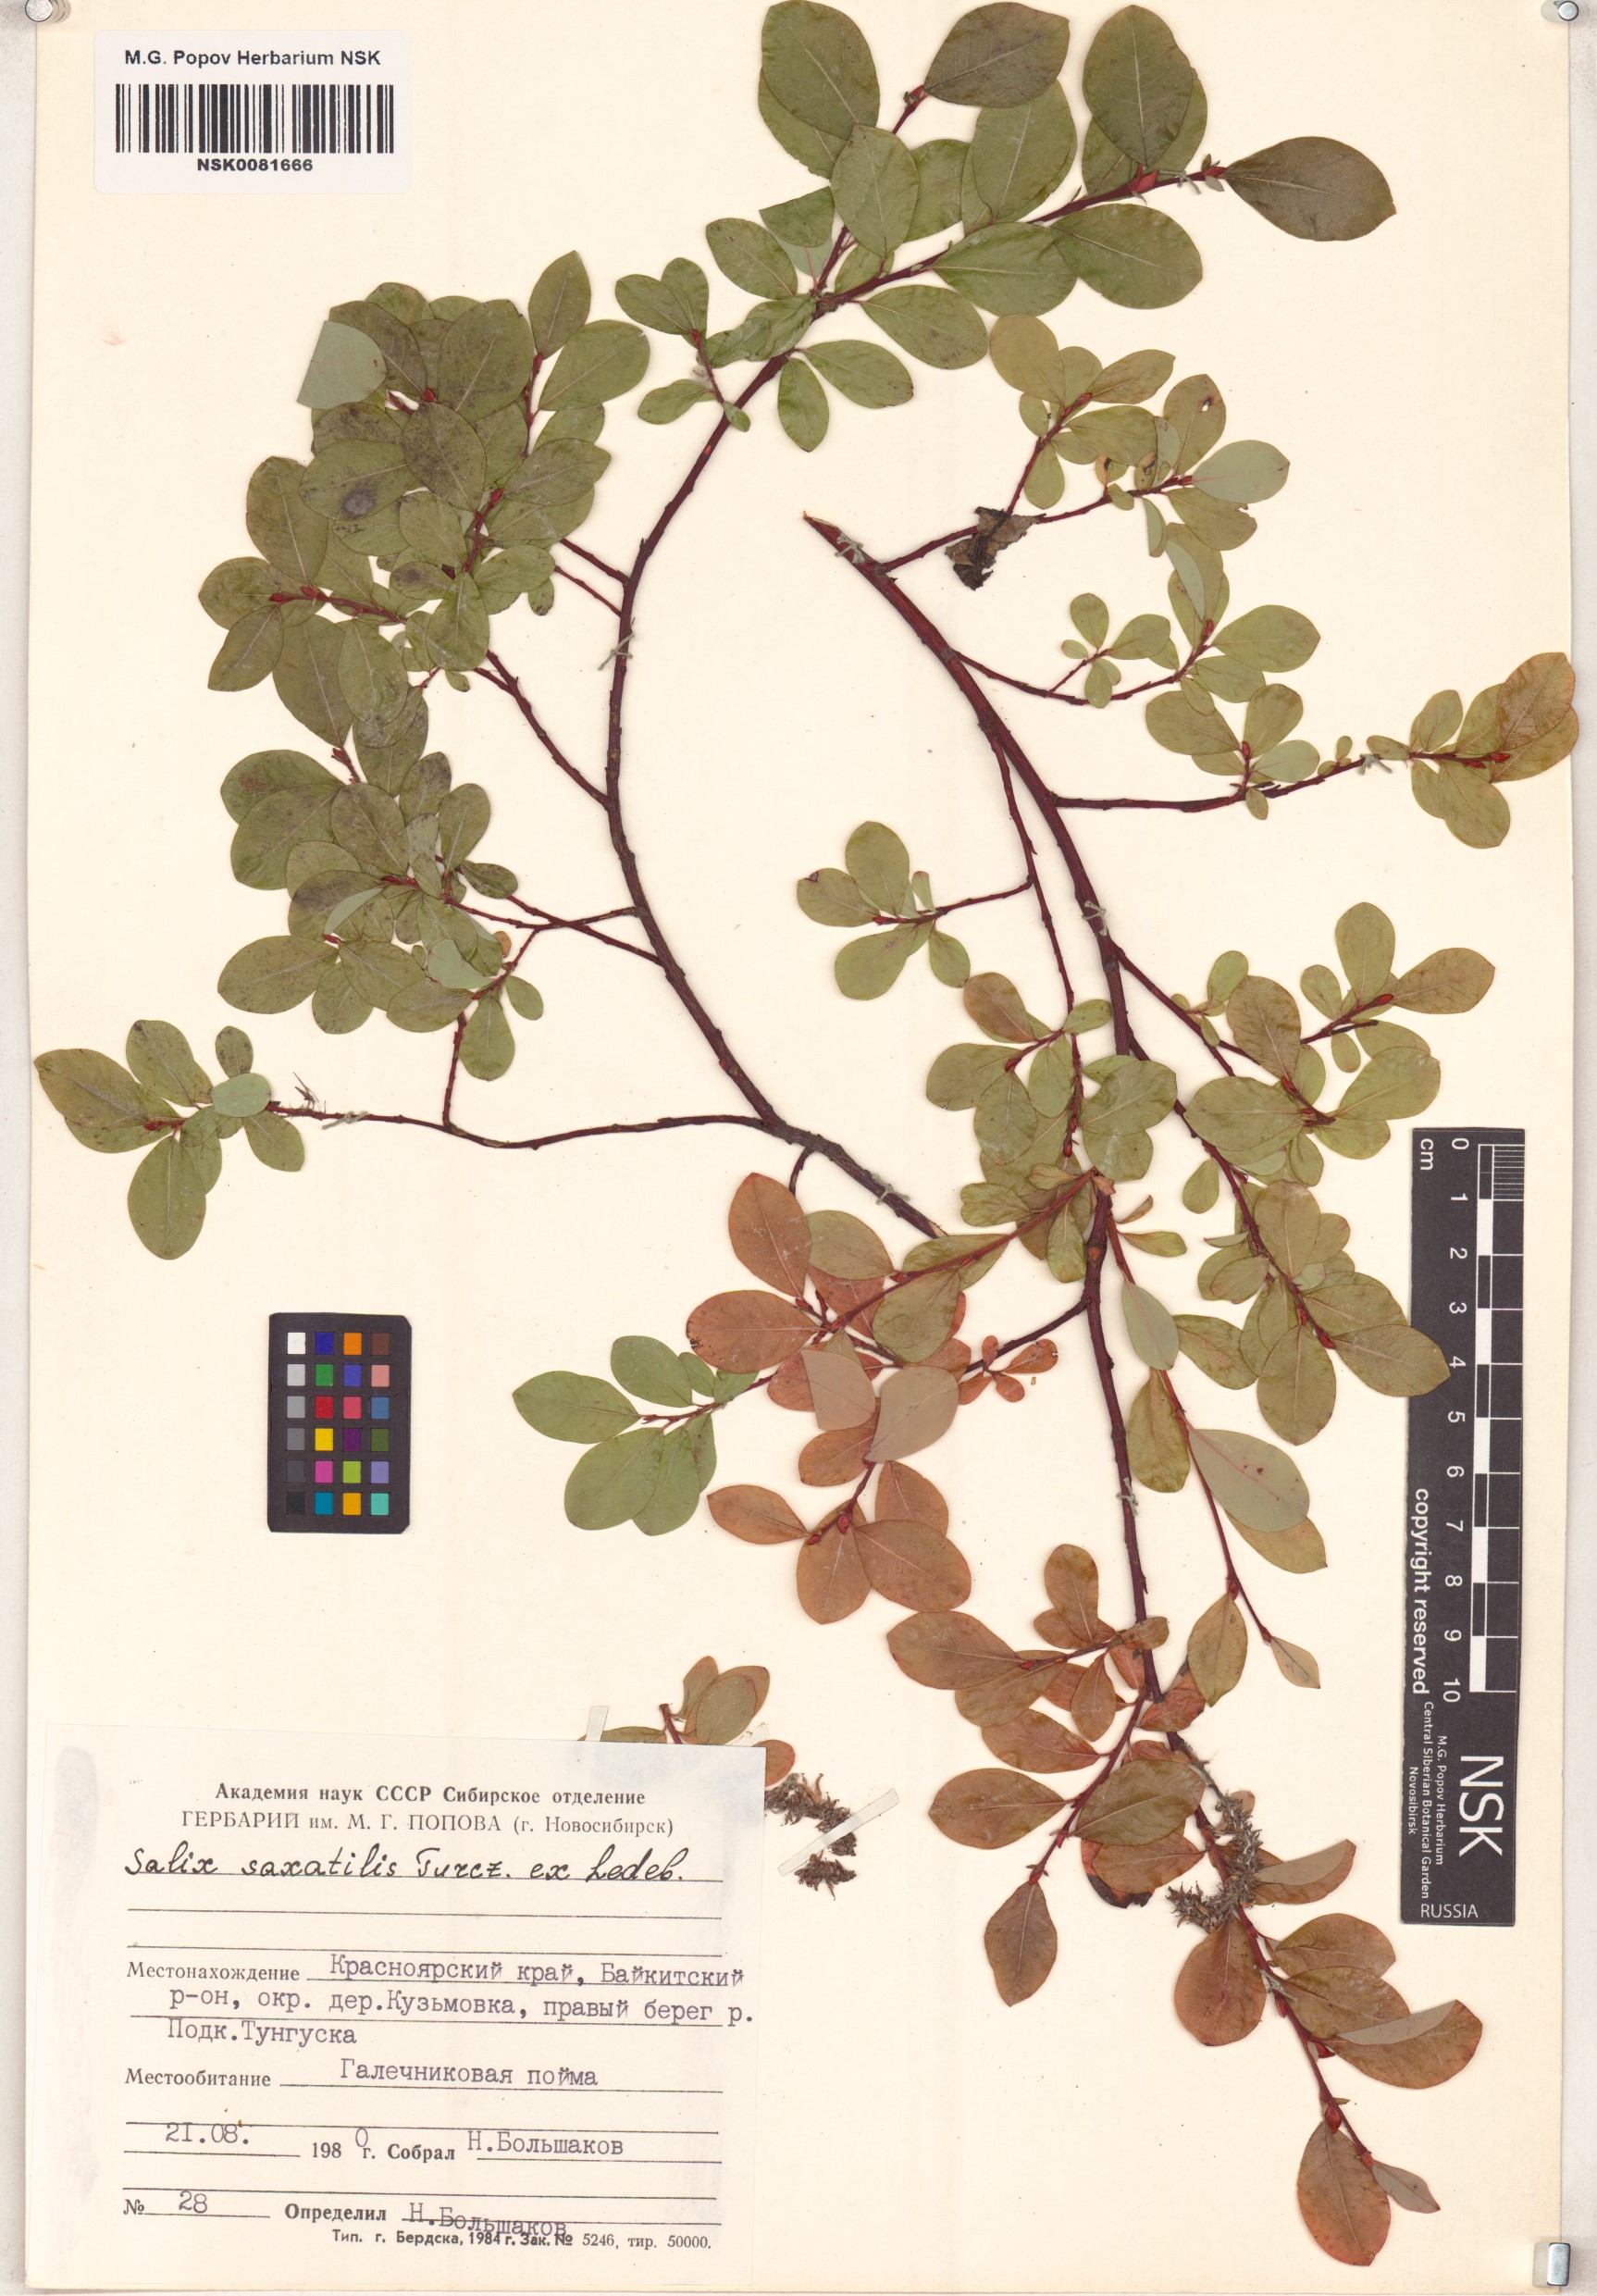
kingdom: Plantae
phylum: Tracheophyta
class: Magnoliopsida
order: Malpighiales
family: Salicaceae
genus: Salix
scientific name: Salix saxatilis
